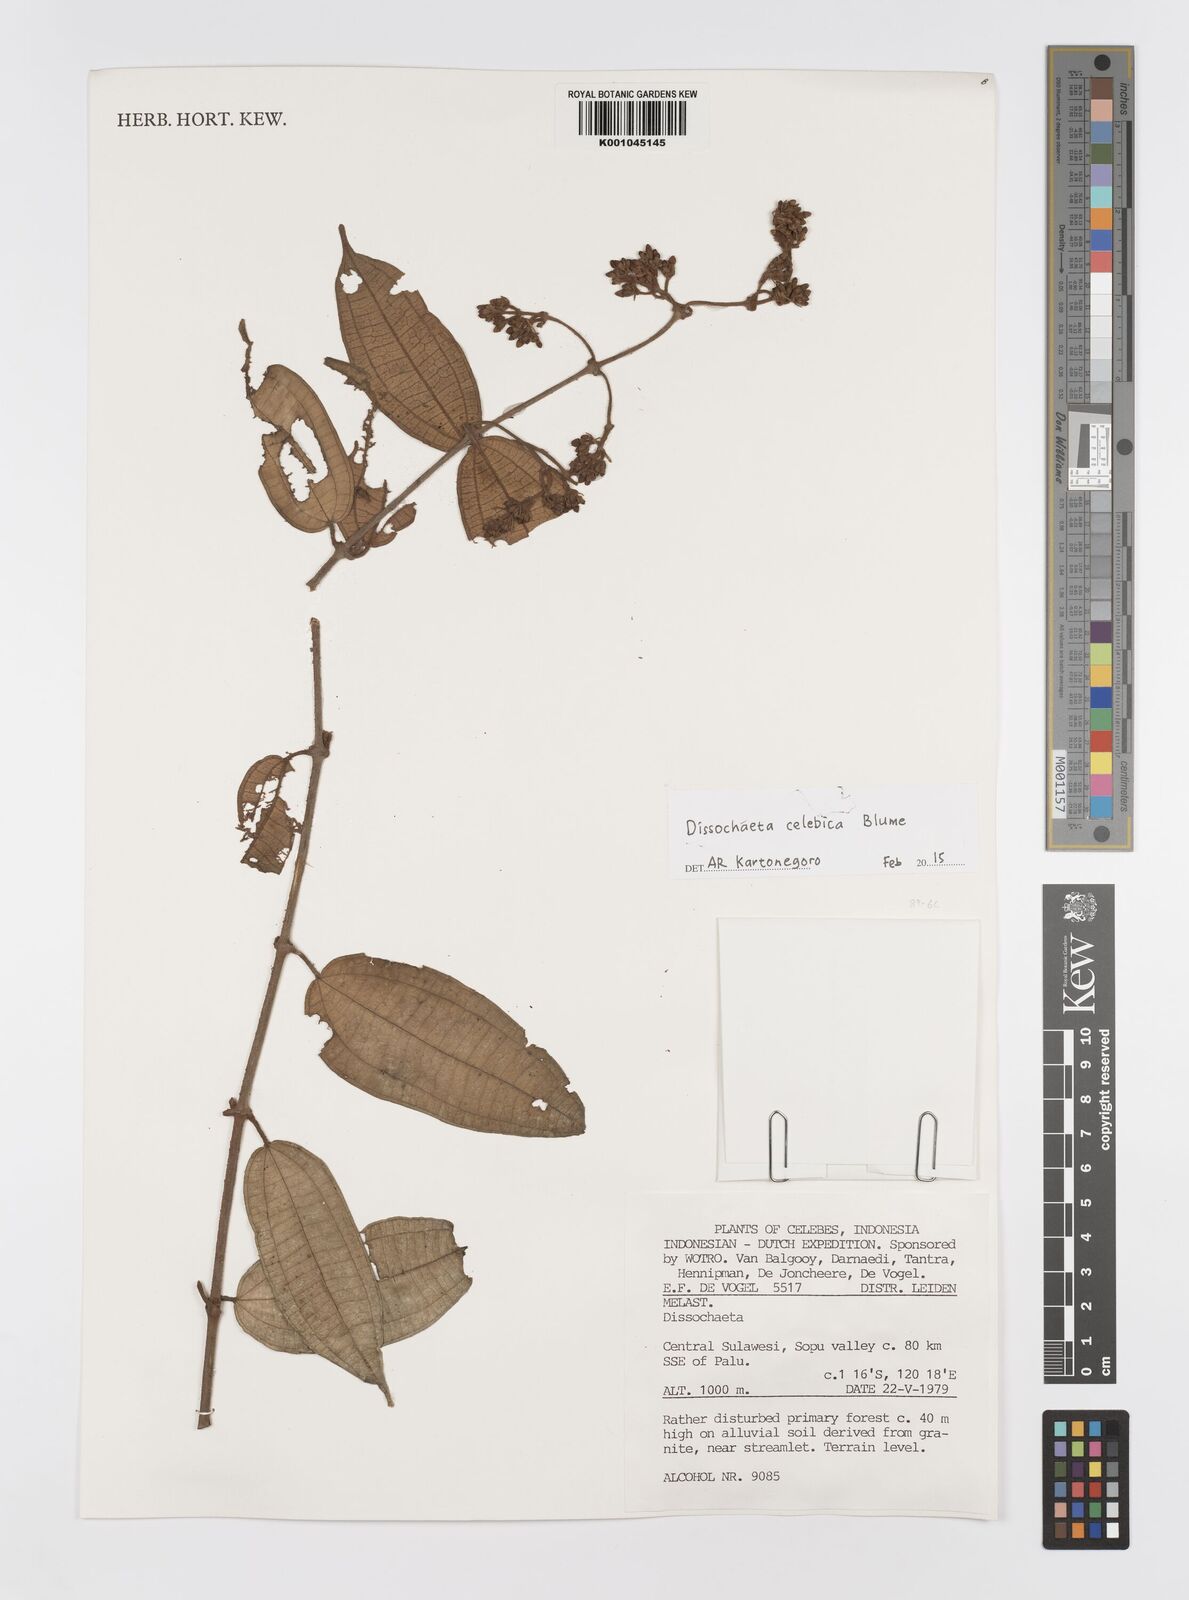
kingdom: Plantae
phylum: Tracheophyta
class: Magnoliopsida
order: Myrtales
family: Melastomataceae
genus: Dissochaeta
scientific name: Dissochaeta celebica
